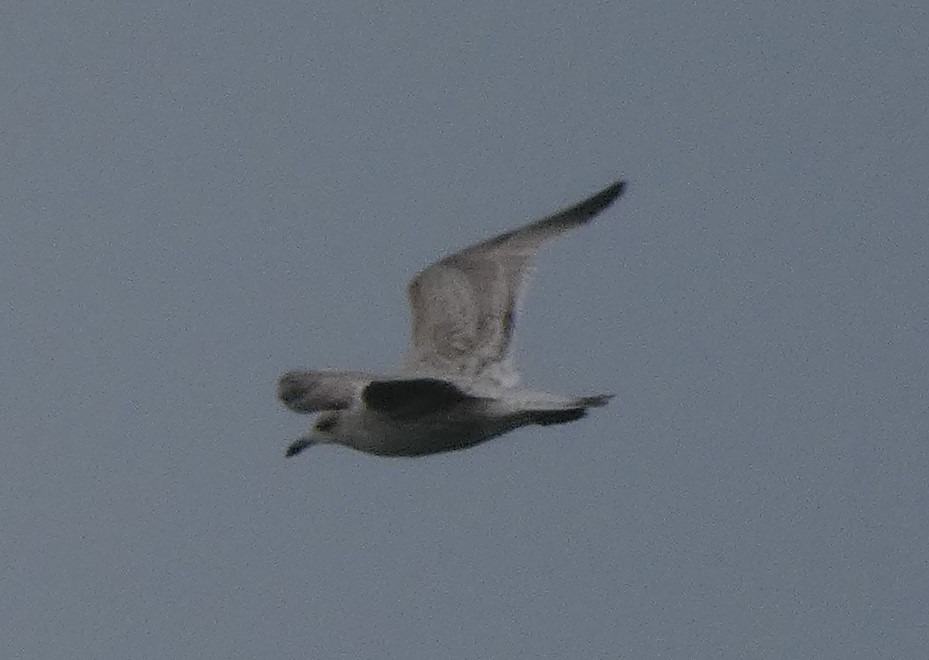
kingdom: Animalia
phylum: Chordata
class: Aves
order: Charadriiformes
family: Laridae
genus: Larus
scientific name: Larus argentatus
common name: Sølvmåge
